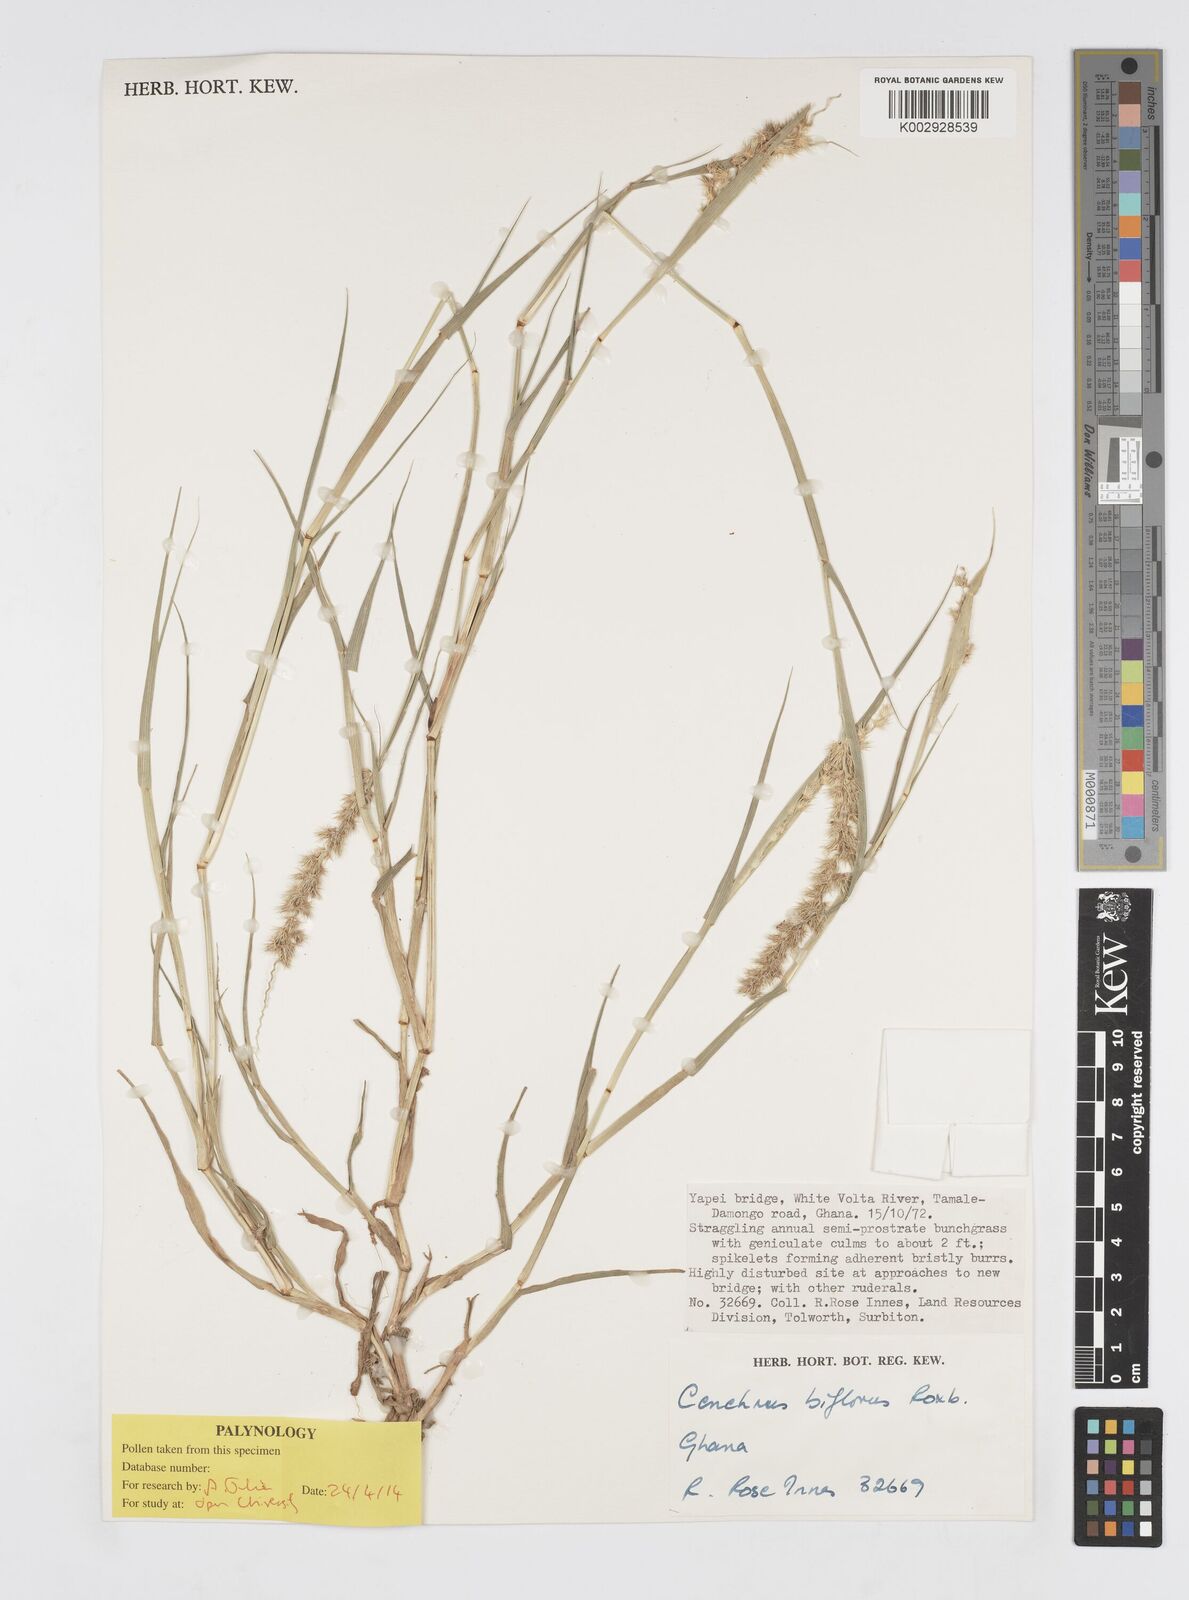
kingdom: Plantae
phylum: Tracheophyta
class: Liliopsida
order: Poales
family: Poaceae
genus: Cenchrus
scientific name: Cenchrus biflorus
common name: Indian sandbur
